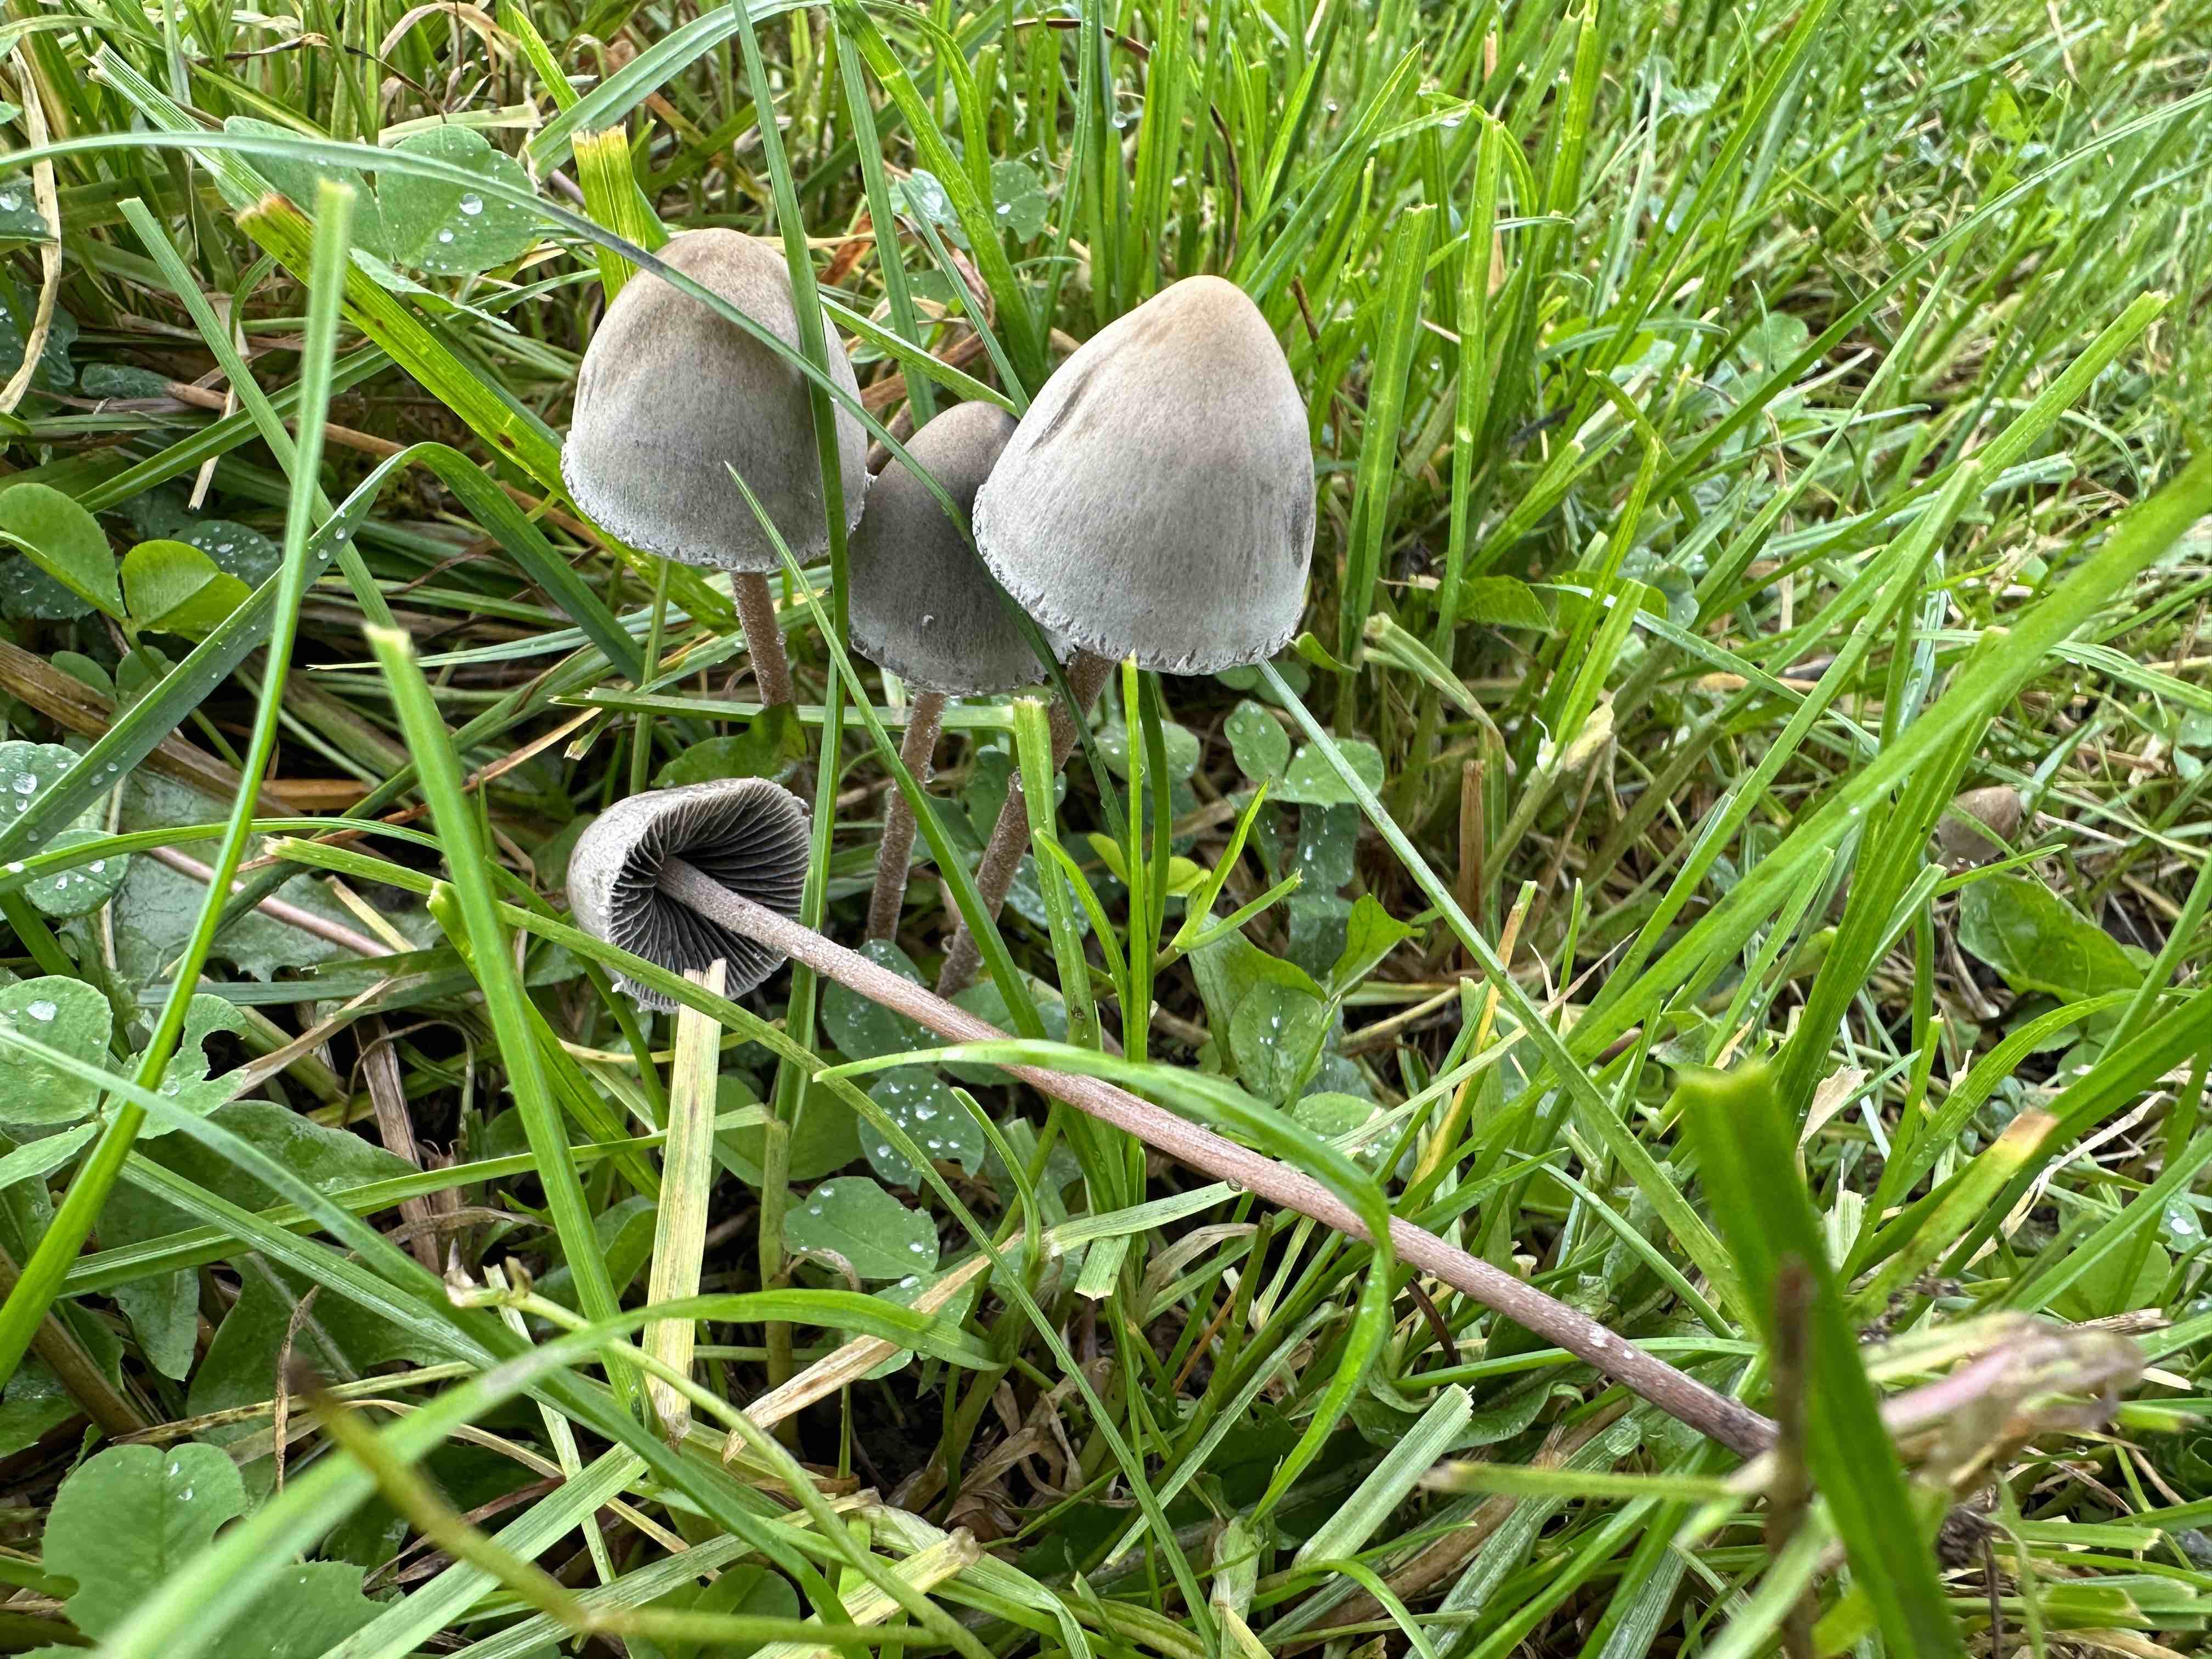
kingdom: Fungi
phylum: Basidiomycota
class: Agaricomycetes
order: Agaricales
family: Bolbitiaceae
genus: Panaeolus
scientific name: Panaeolus papilionaceus
